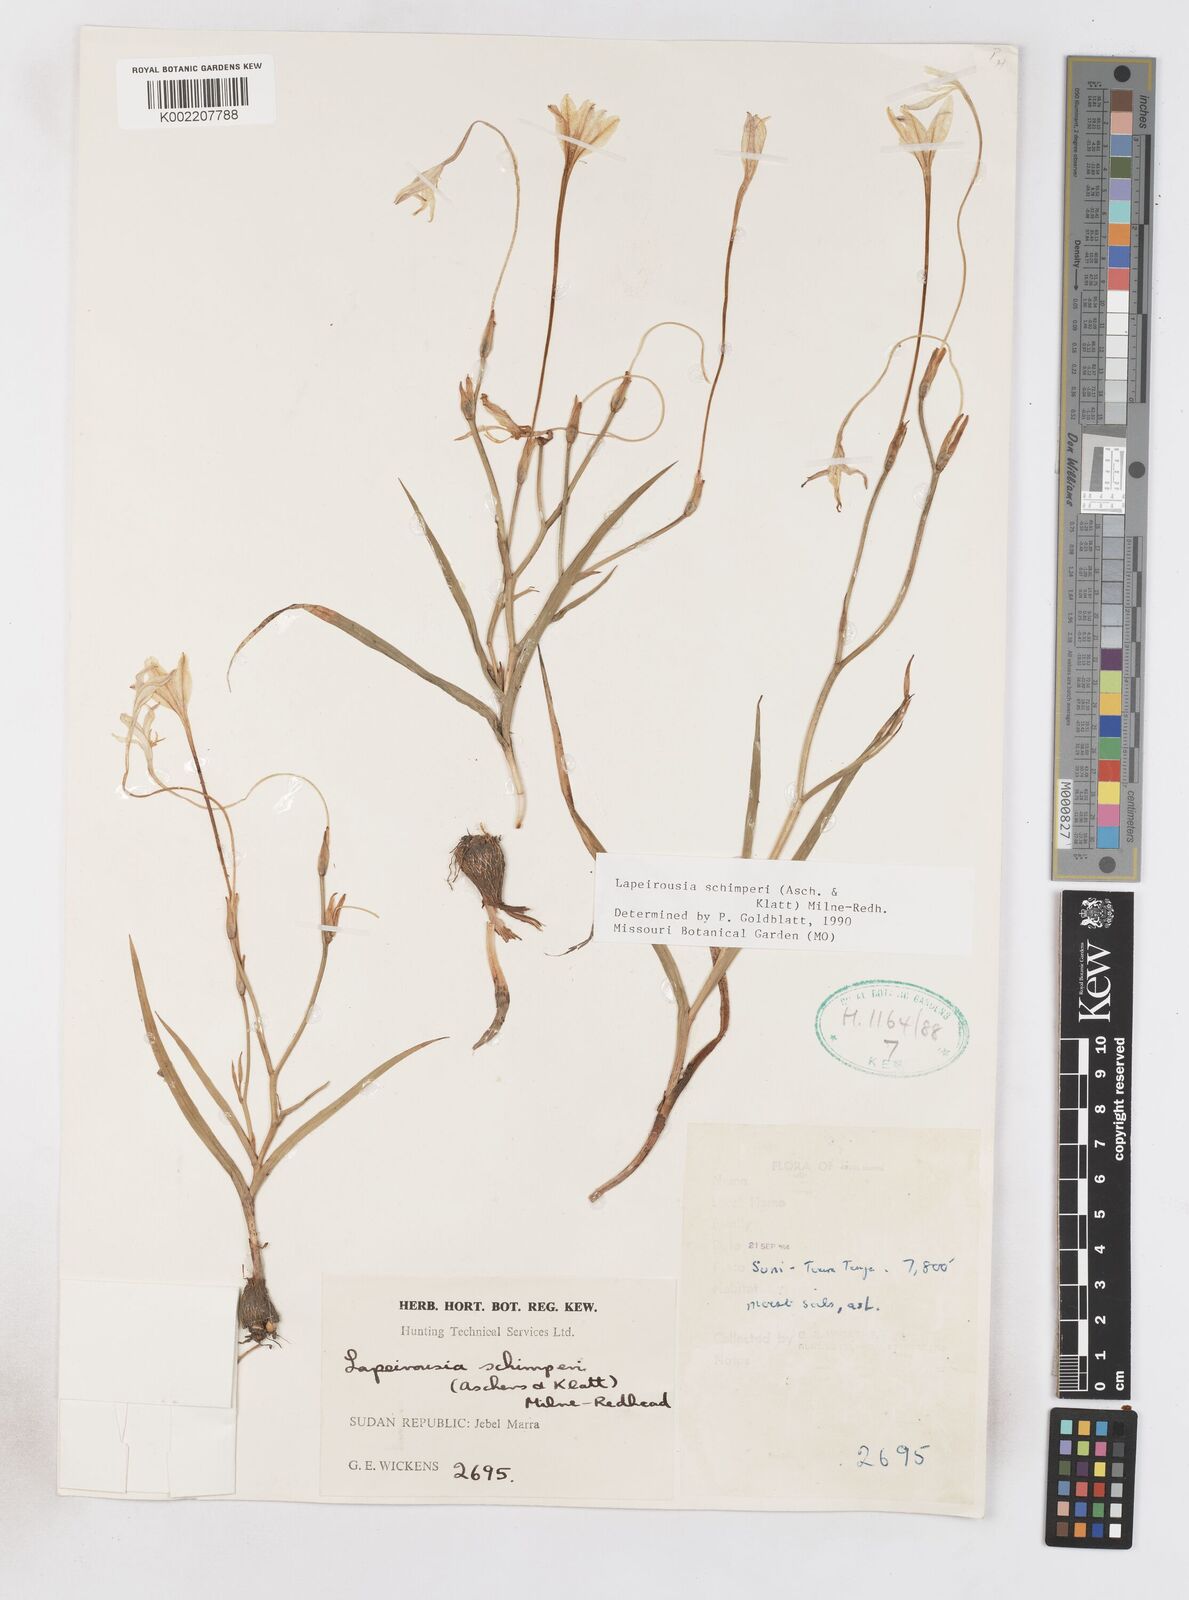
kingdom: Plantae
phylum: Tracheophyta
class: Liliopsida
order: Asparagales
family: Iridaceae
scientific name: Iridaceae
